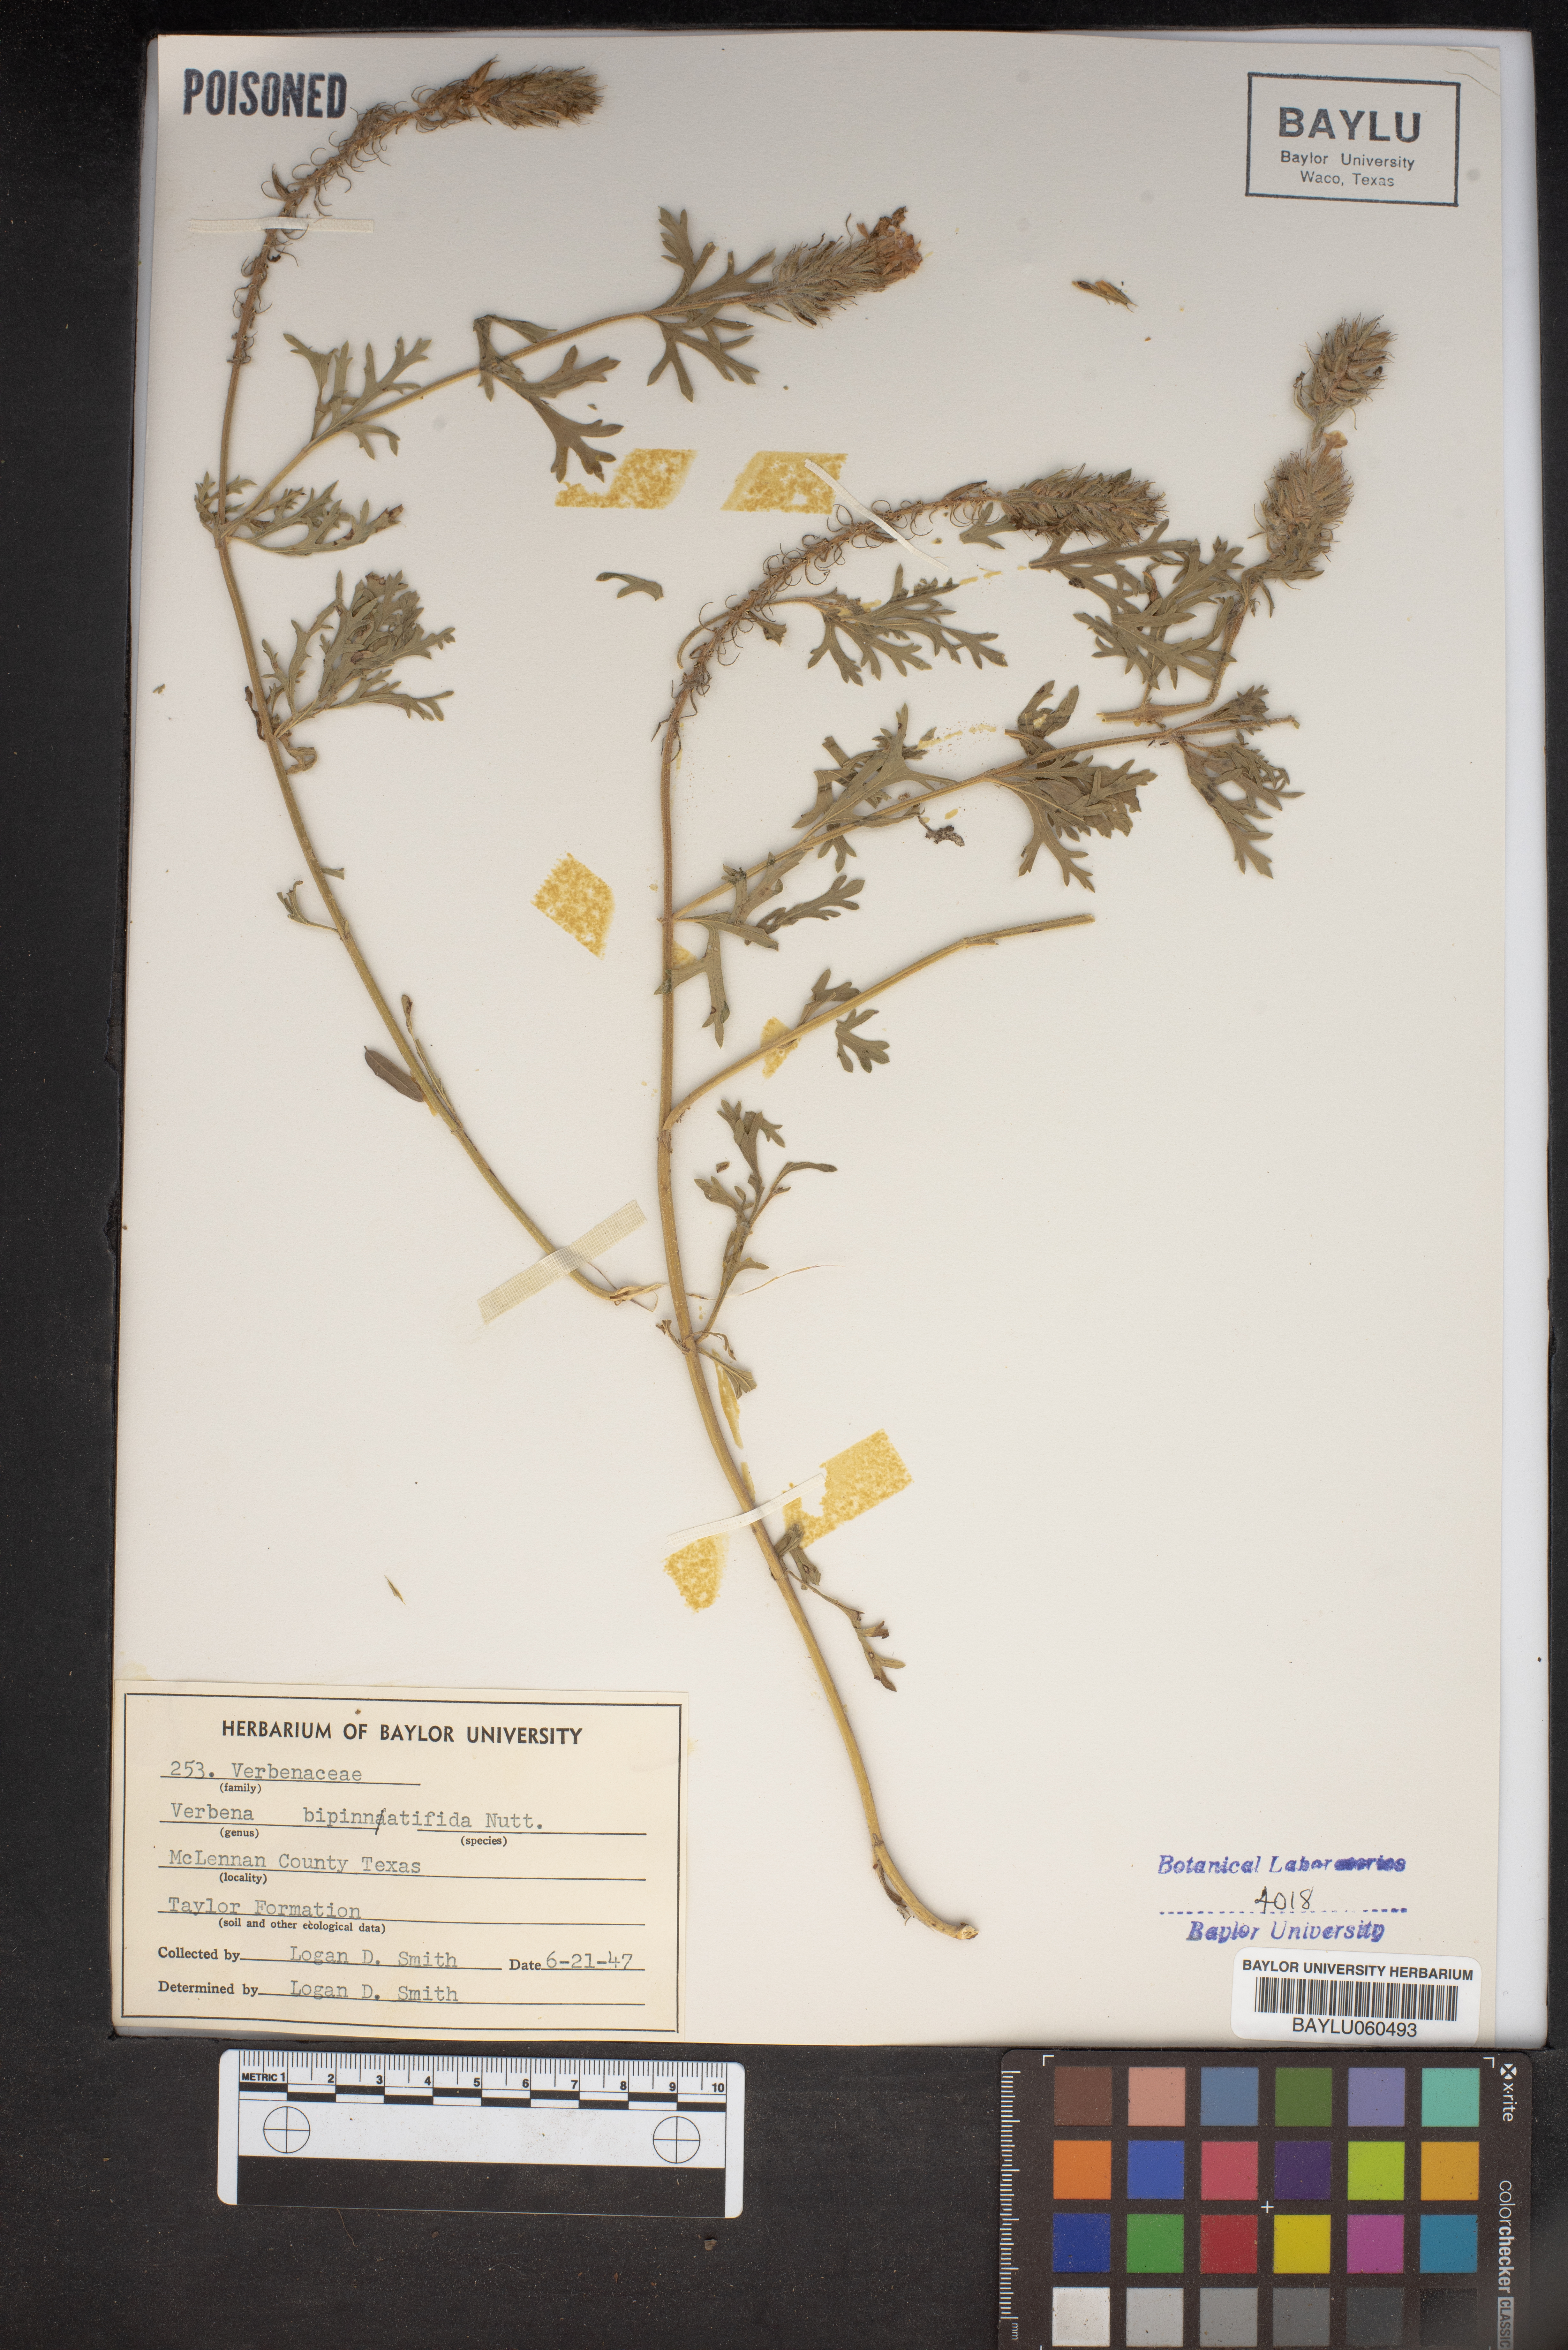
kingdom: Plantae
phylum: Tracheophyta
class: Magnoliopsida
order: Lamiales
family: Verbenaceae
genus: Verbena
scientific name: Verbena bipinnatifida
